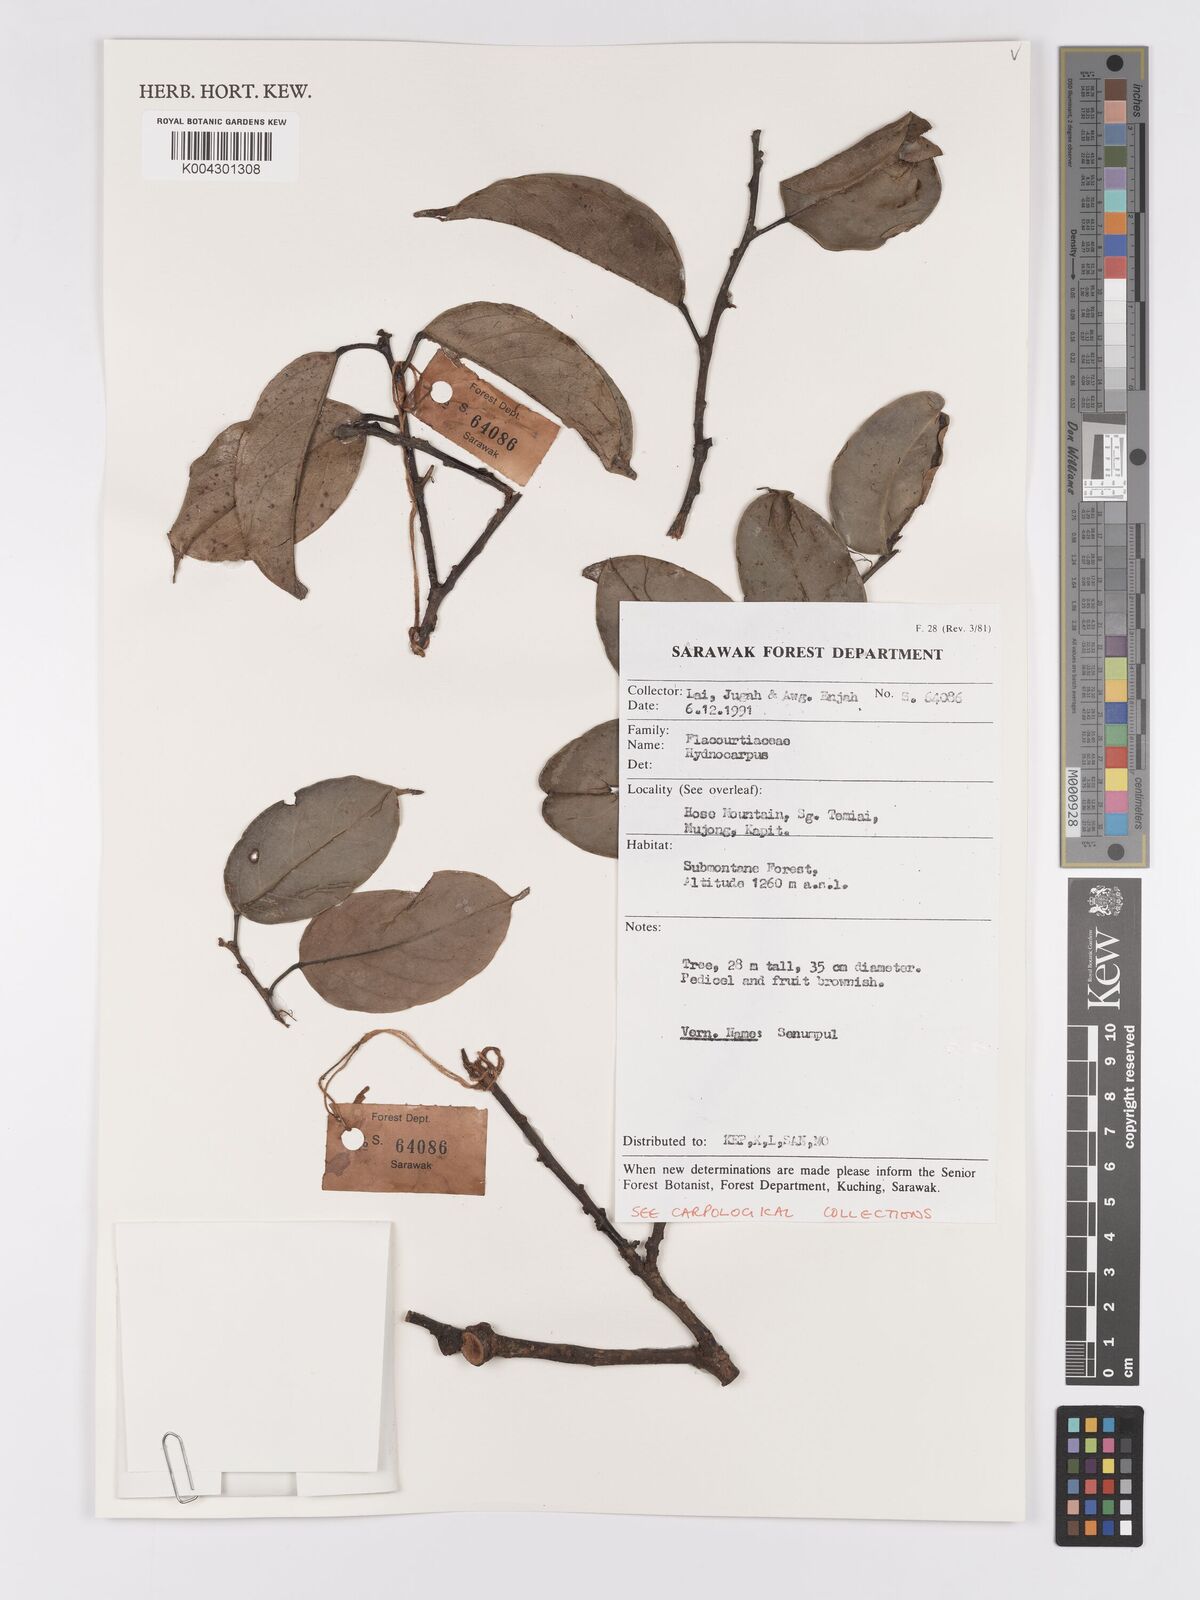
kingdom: Plantae
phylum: Tracheophyta
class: Magnoliopsida
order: Malpighiales
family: Achariaceae
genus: Hydnocarpus
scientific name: Hydnocarpus
